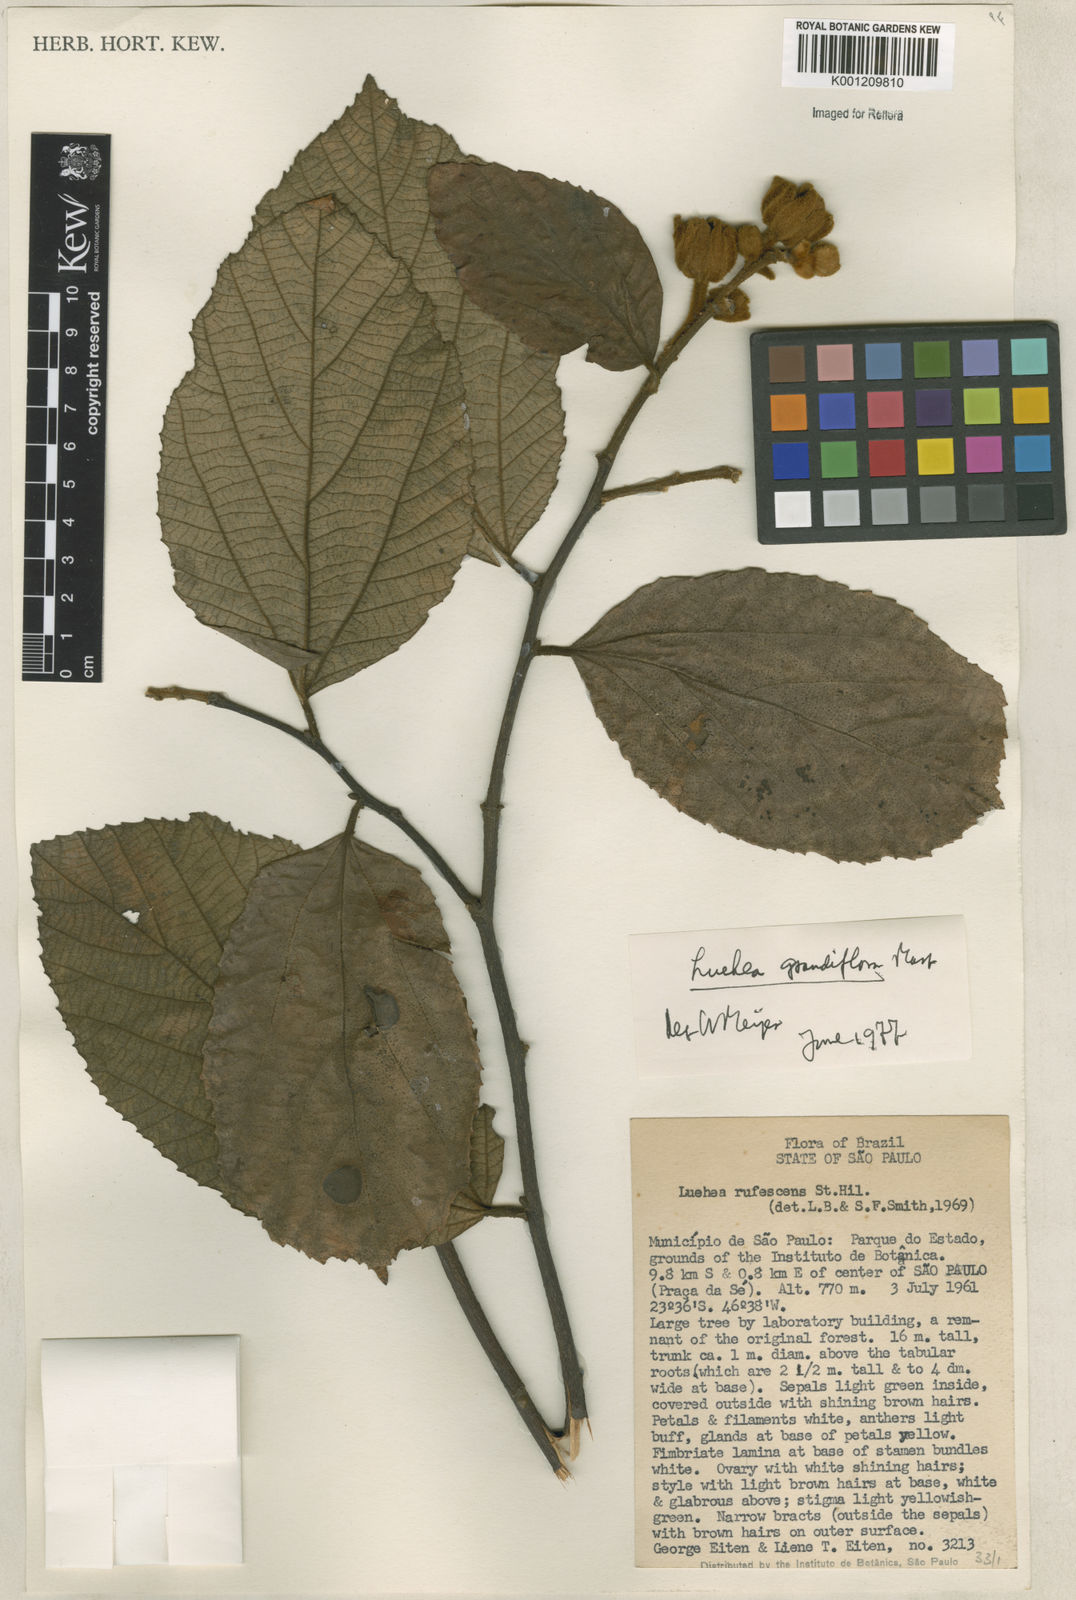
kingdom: Plantae
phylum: Tracheophyta
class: Magnoliopsida
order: Malvales
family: Malvaceae
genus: Luehea
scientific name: Luehea grandiflora
